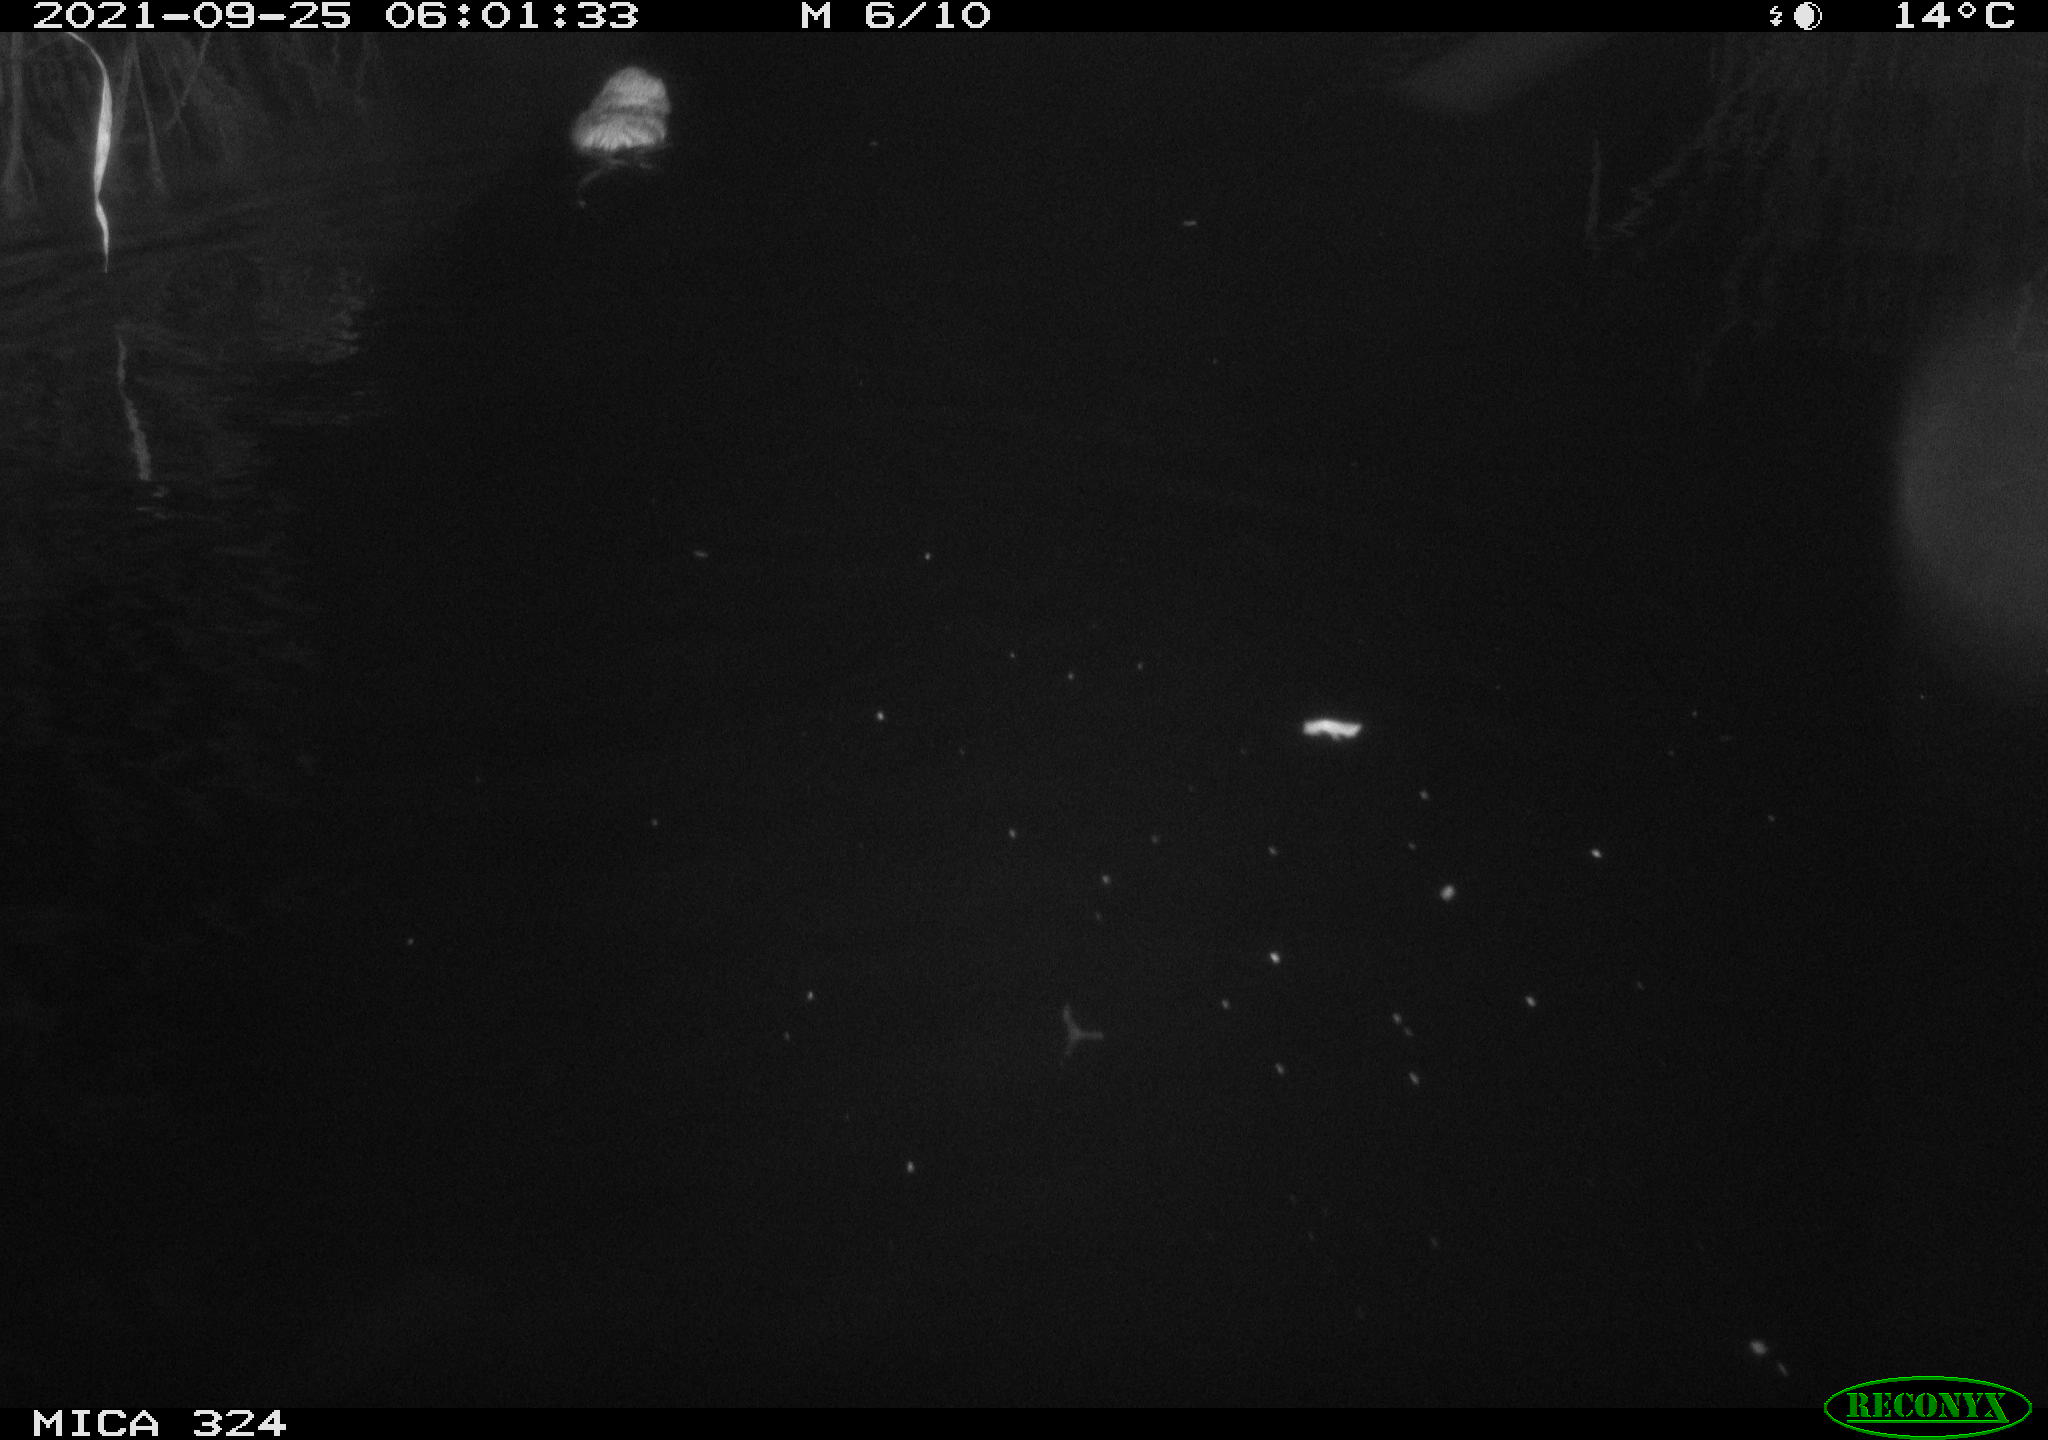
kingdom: Animalia
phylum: Chordata
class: Mammalia
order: Rodentia
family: Cricetidae
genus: Ondatra
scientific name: Ondatra zibethicus
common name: Muskrat
